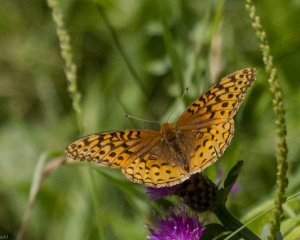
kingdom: Animalia
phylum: Arthropoda
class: Insecta
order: Lepidoptera
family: Nymphalidae
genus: Speyeria
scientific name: Speyeria cybele
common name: Great Spangled Fritillary
